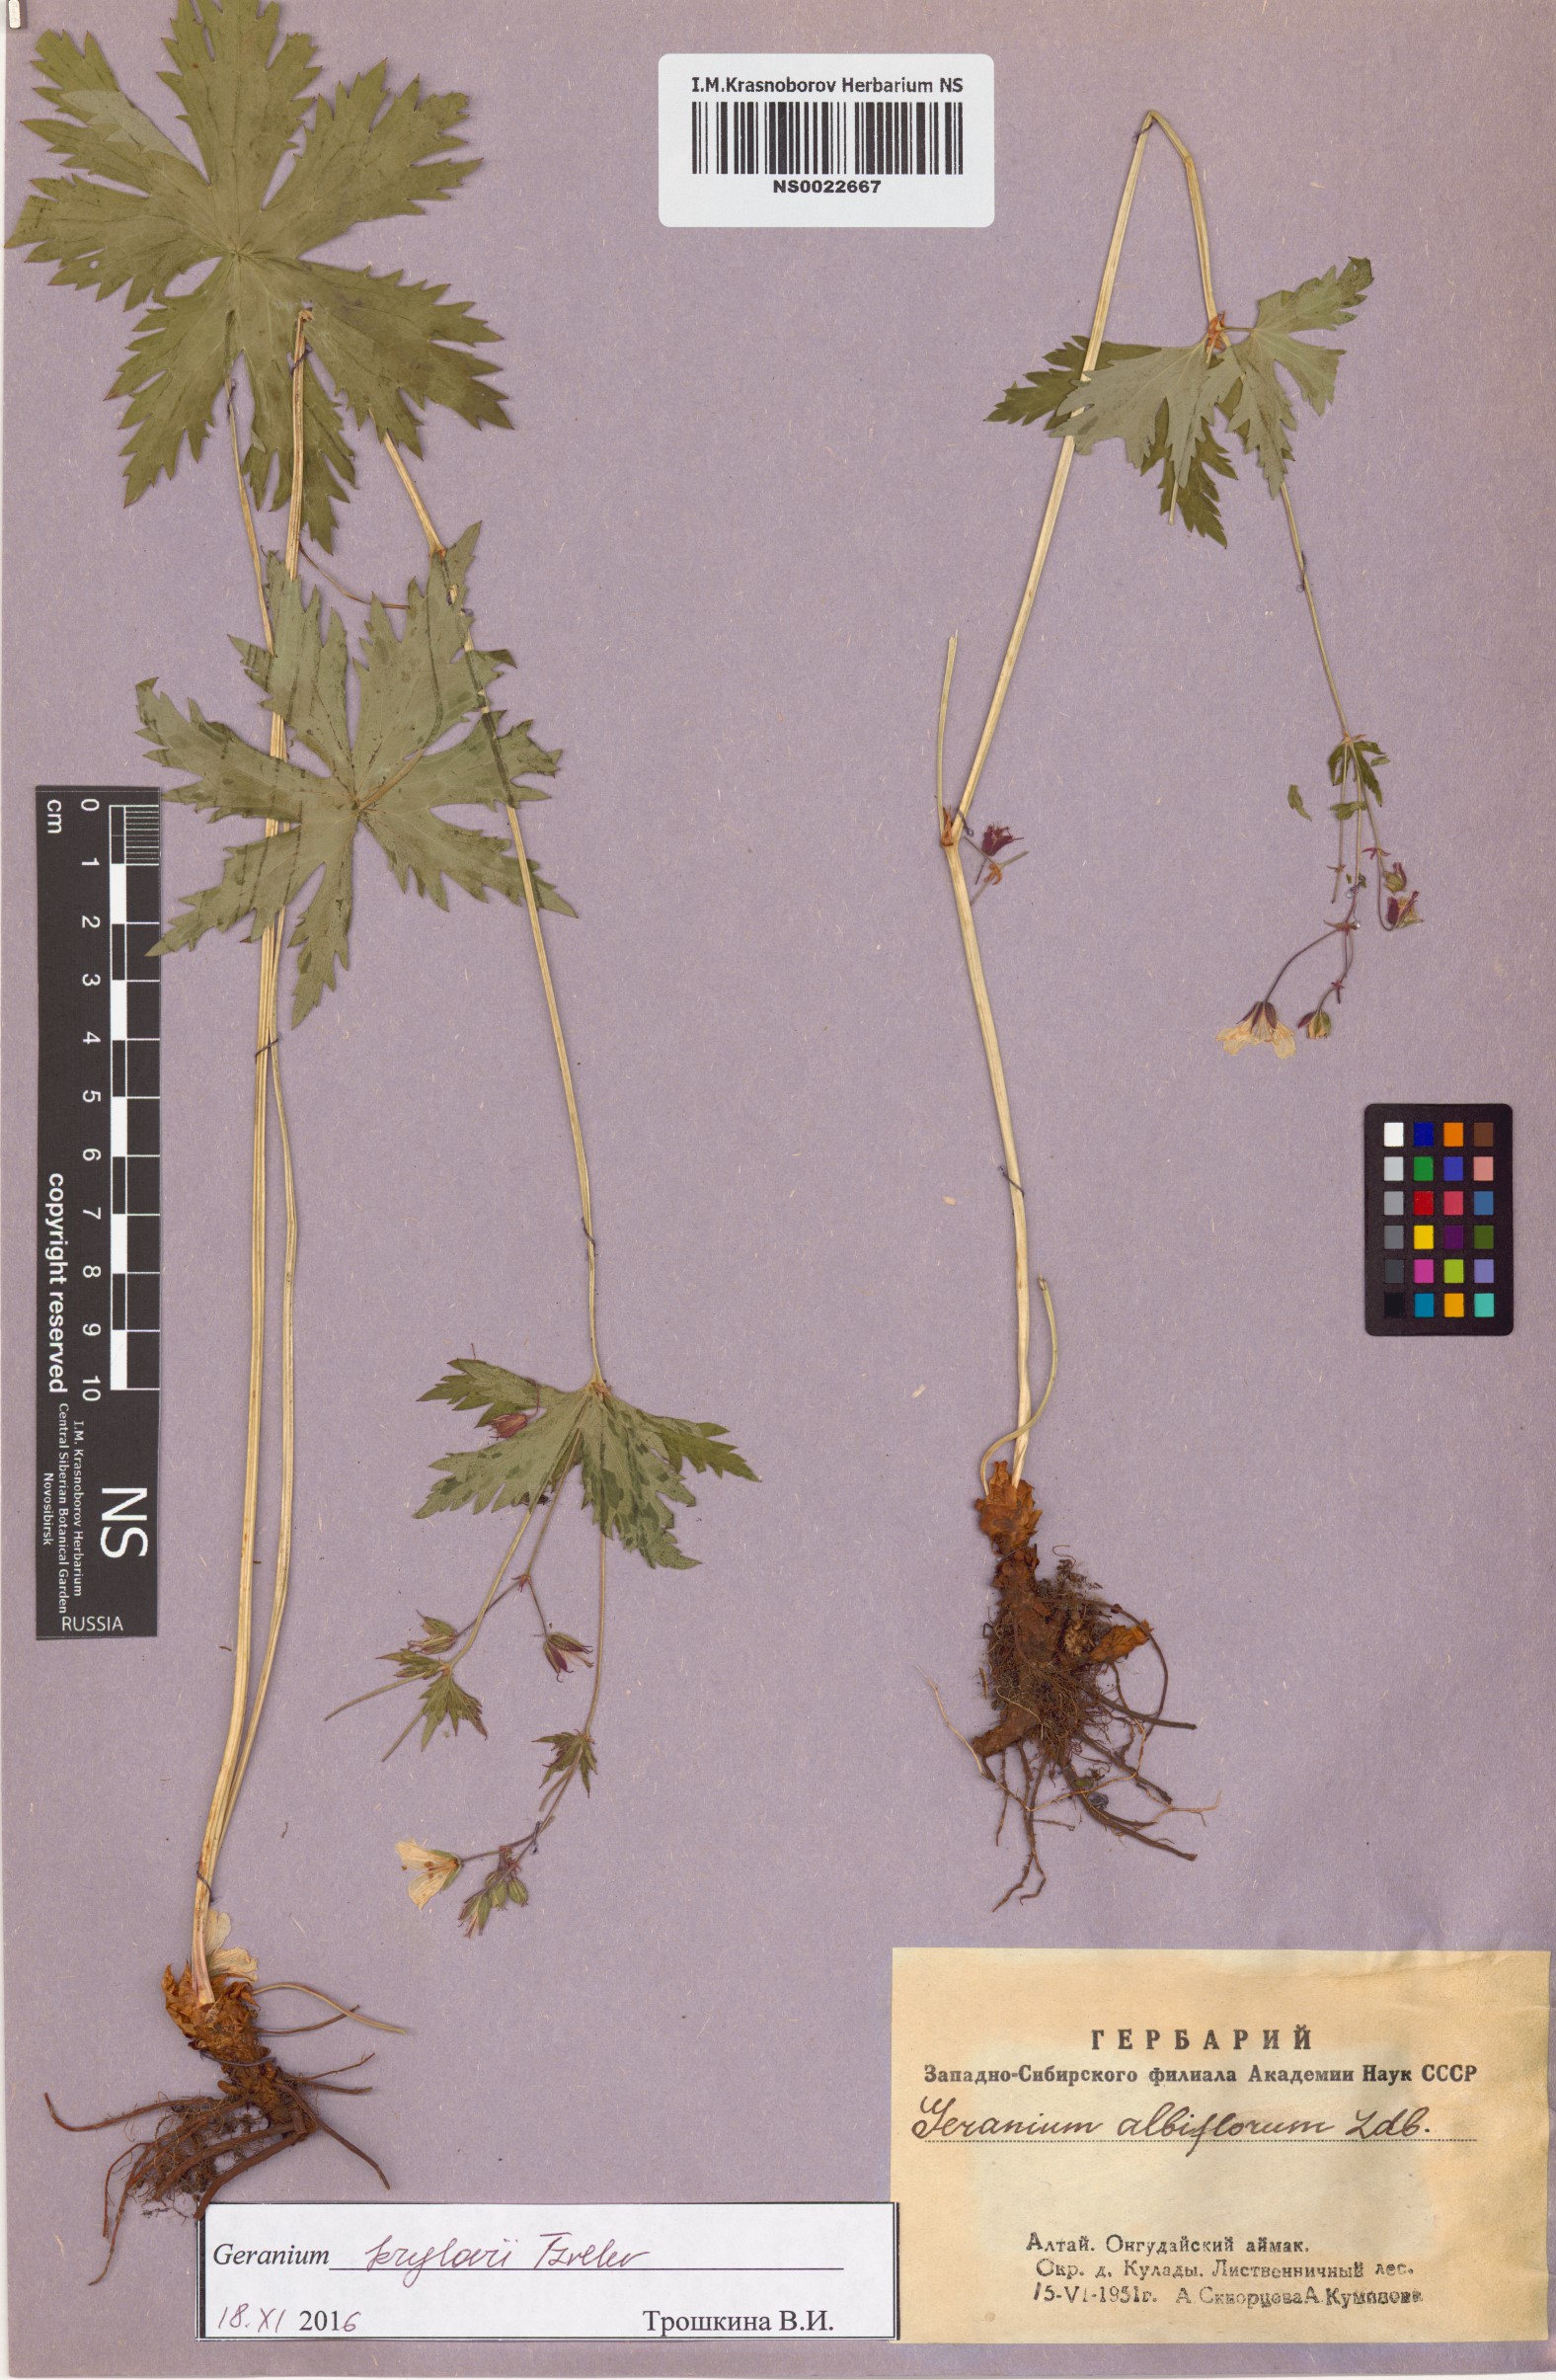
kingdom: Plantae
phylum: Tracheophyta
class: Magnoliopsida
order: Geraniales
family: Geraniaceae
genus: Geranium
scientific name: Geranium sylvaticum
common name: Wood crane's-bill
